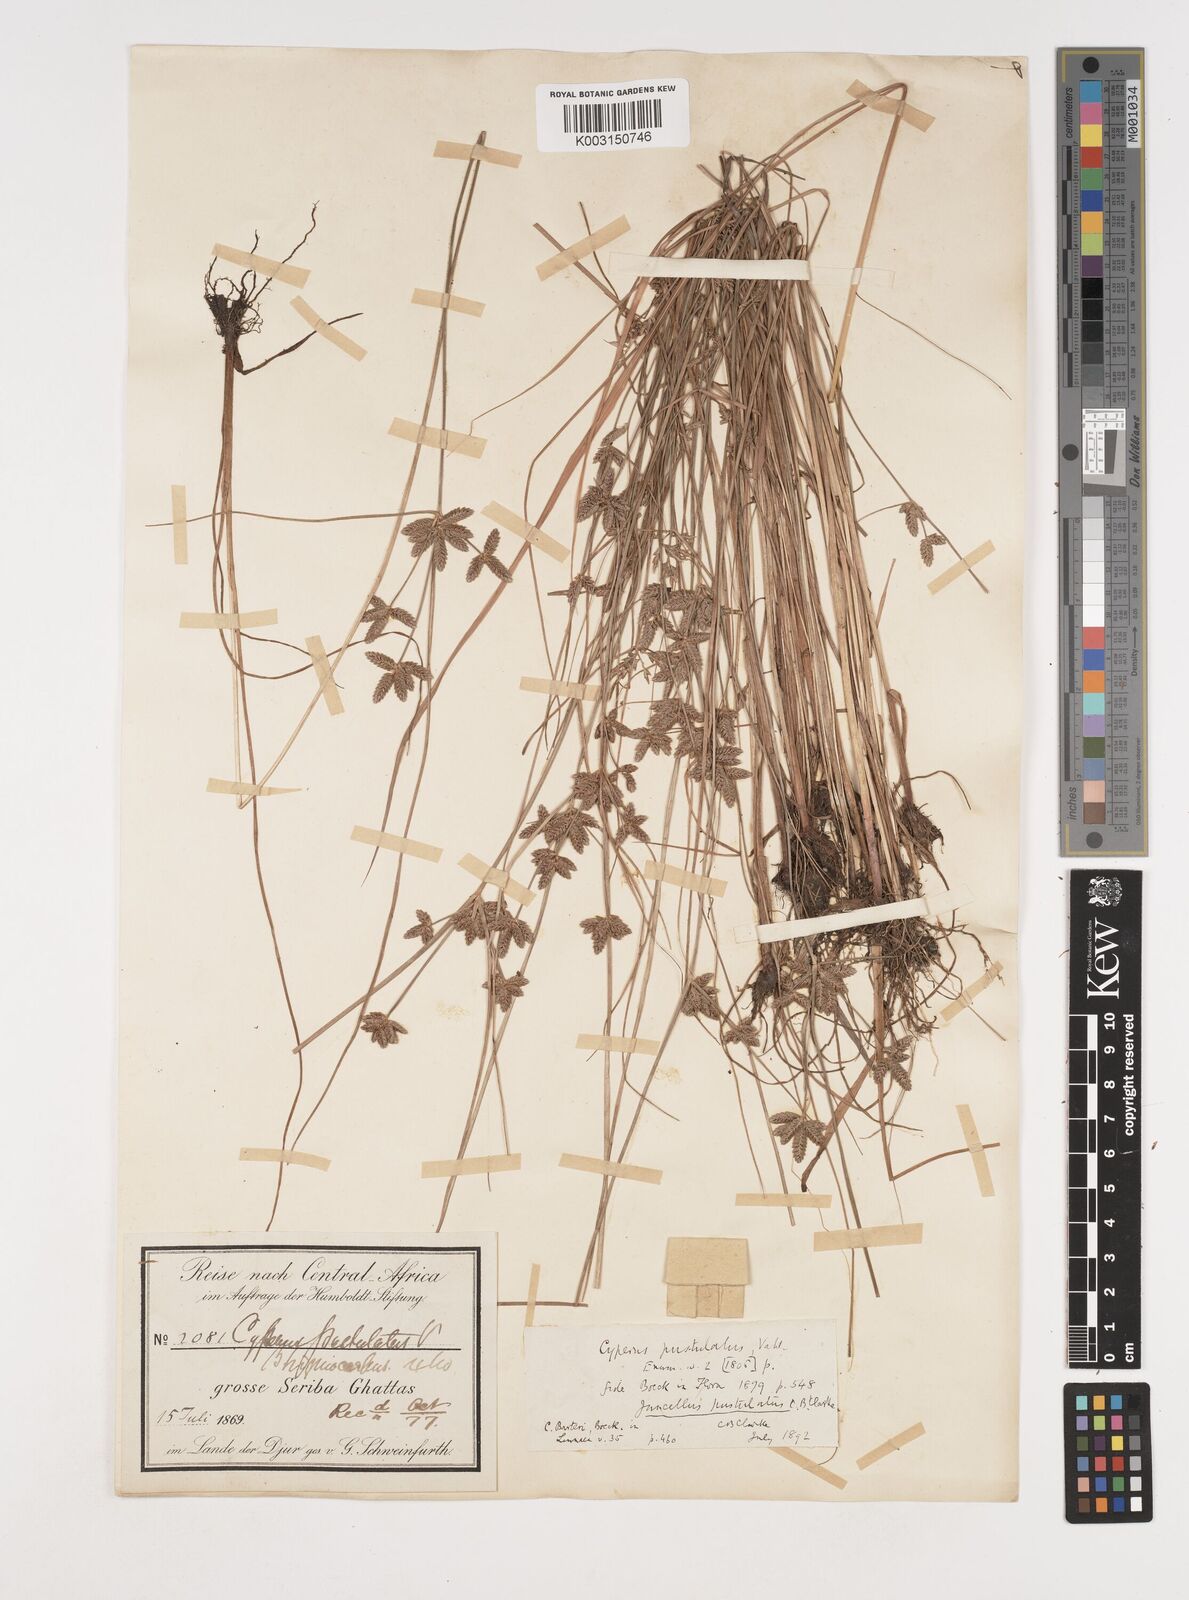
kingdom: Plantae
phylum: Tracheophyta
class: Liliopsida
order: Poales
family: Cyperaceae
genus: Cyperus
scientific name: Cyperus pustulatus
